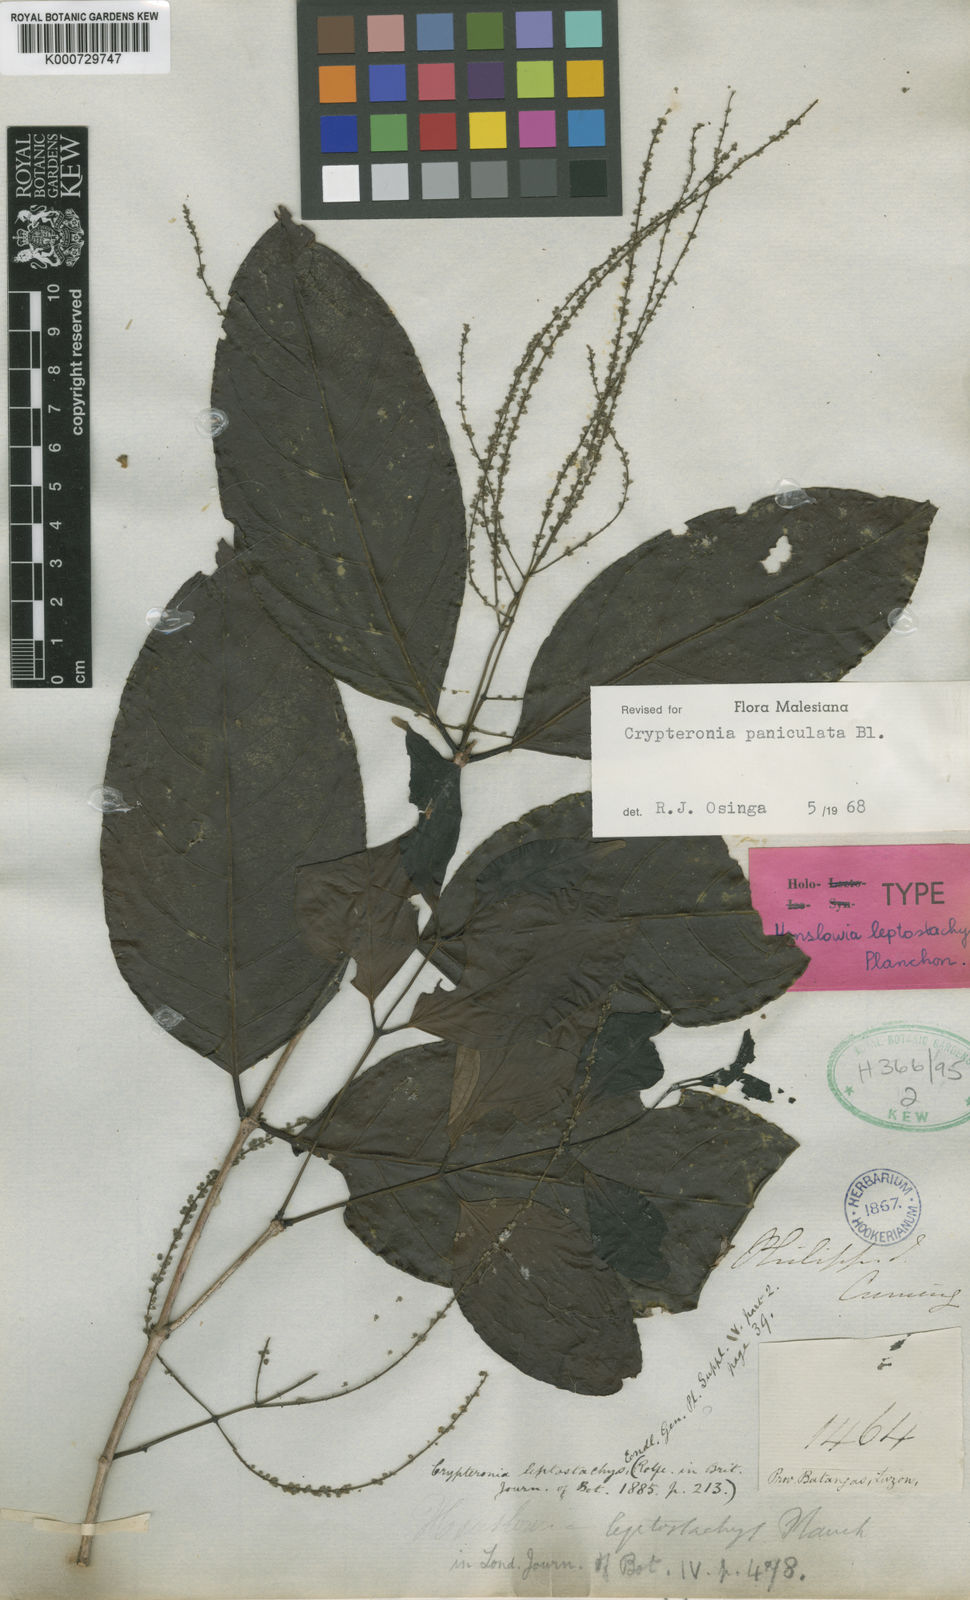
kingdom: Plantae
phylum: Tracheophyta
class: Magnoliopsida
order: Myrtales
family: Crypteroniaceae
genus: Crypteronia
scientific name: Crypteronia paniculata
